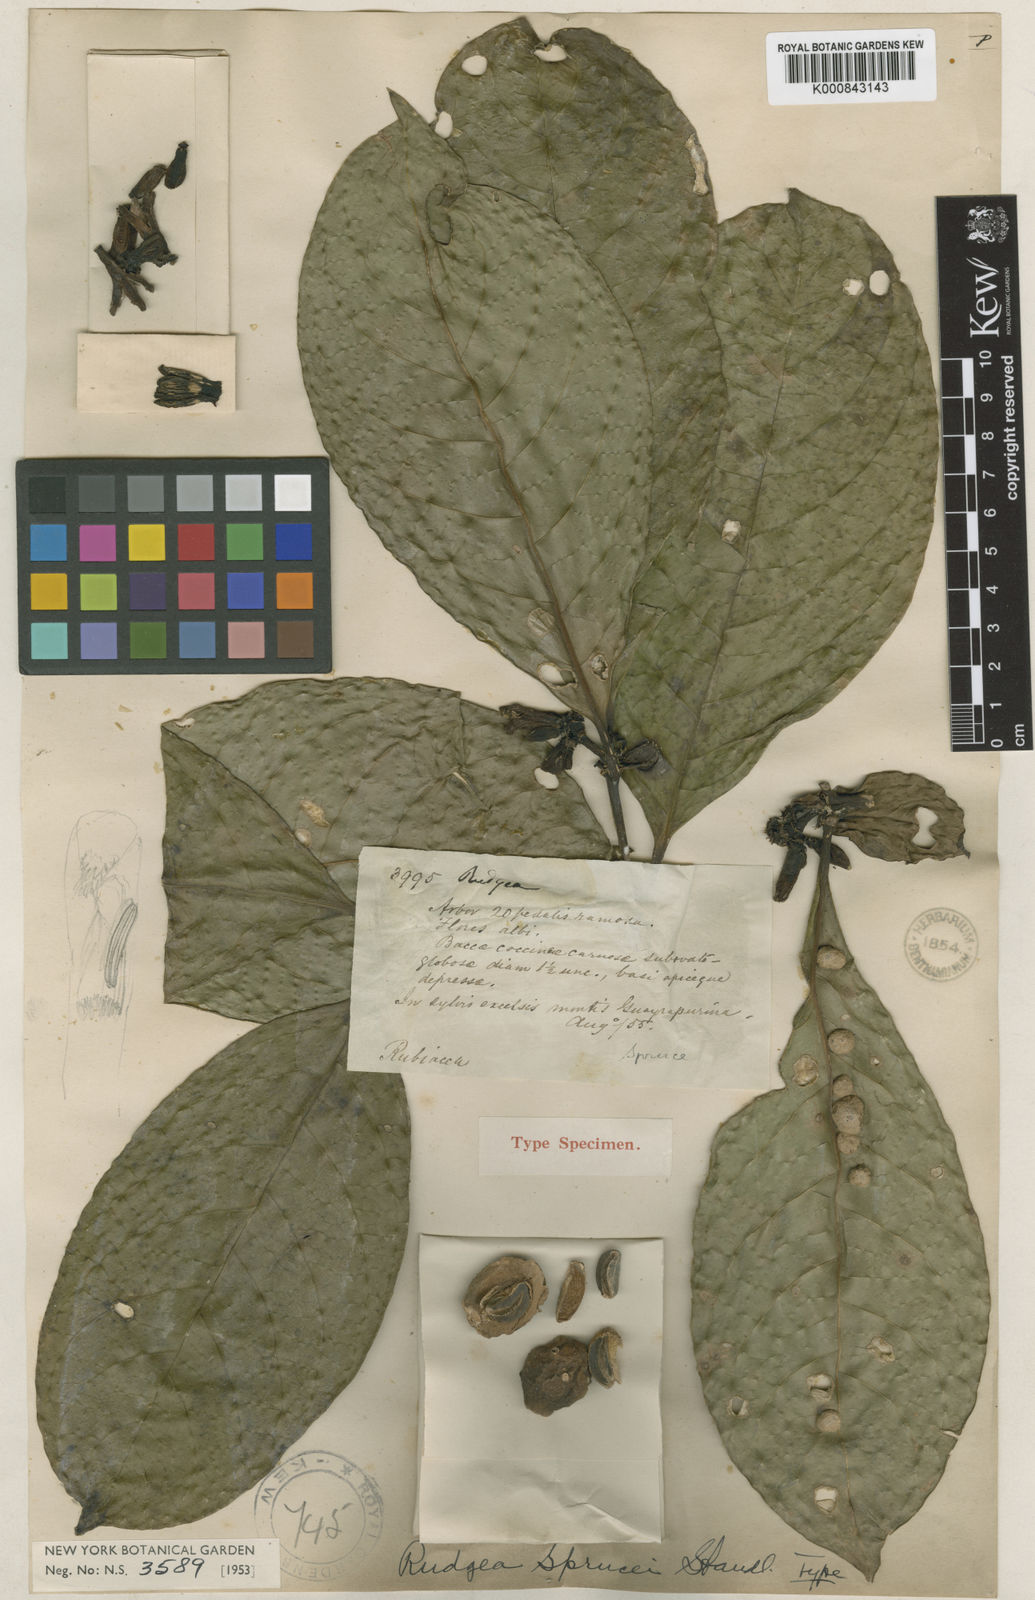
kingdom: Plantae
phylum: Tracheophyta
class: Magnoliopsida
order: Gentianales
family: Rubiaceae
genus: Rudgea
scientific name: Rudgea sprucei
